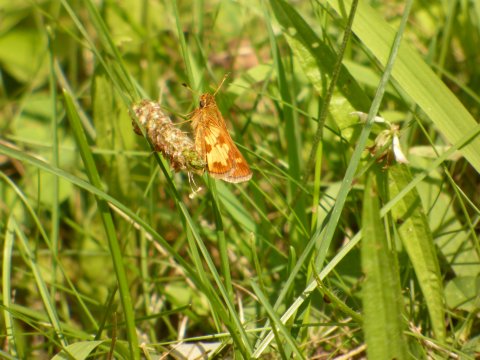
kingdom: Animalia
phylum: Arthropoda
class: Insecta
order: Lepidoptera
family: Hesperiidae
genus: Polites
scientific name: Polites coras
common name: Peck's Skipper
